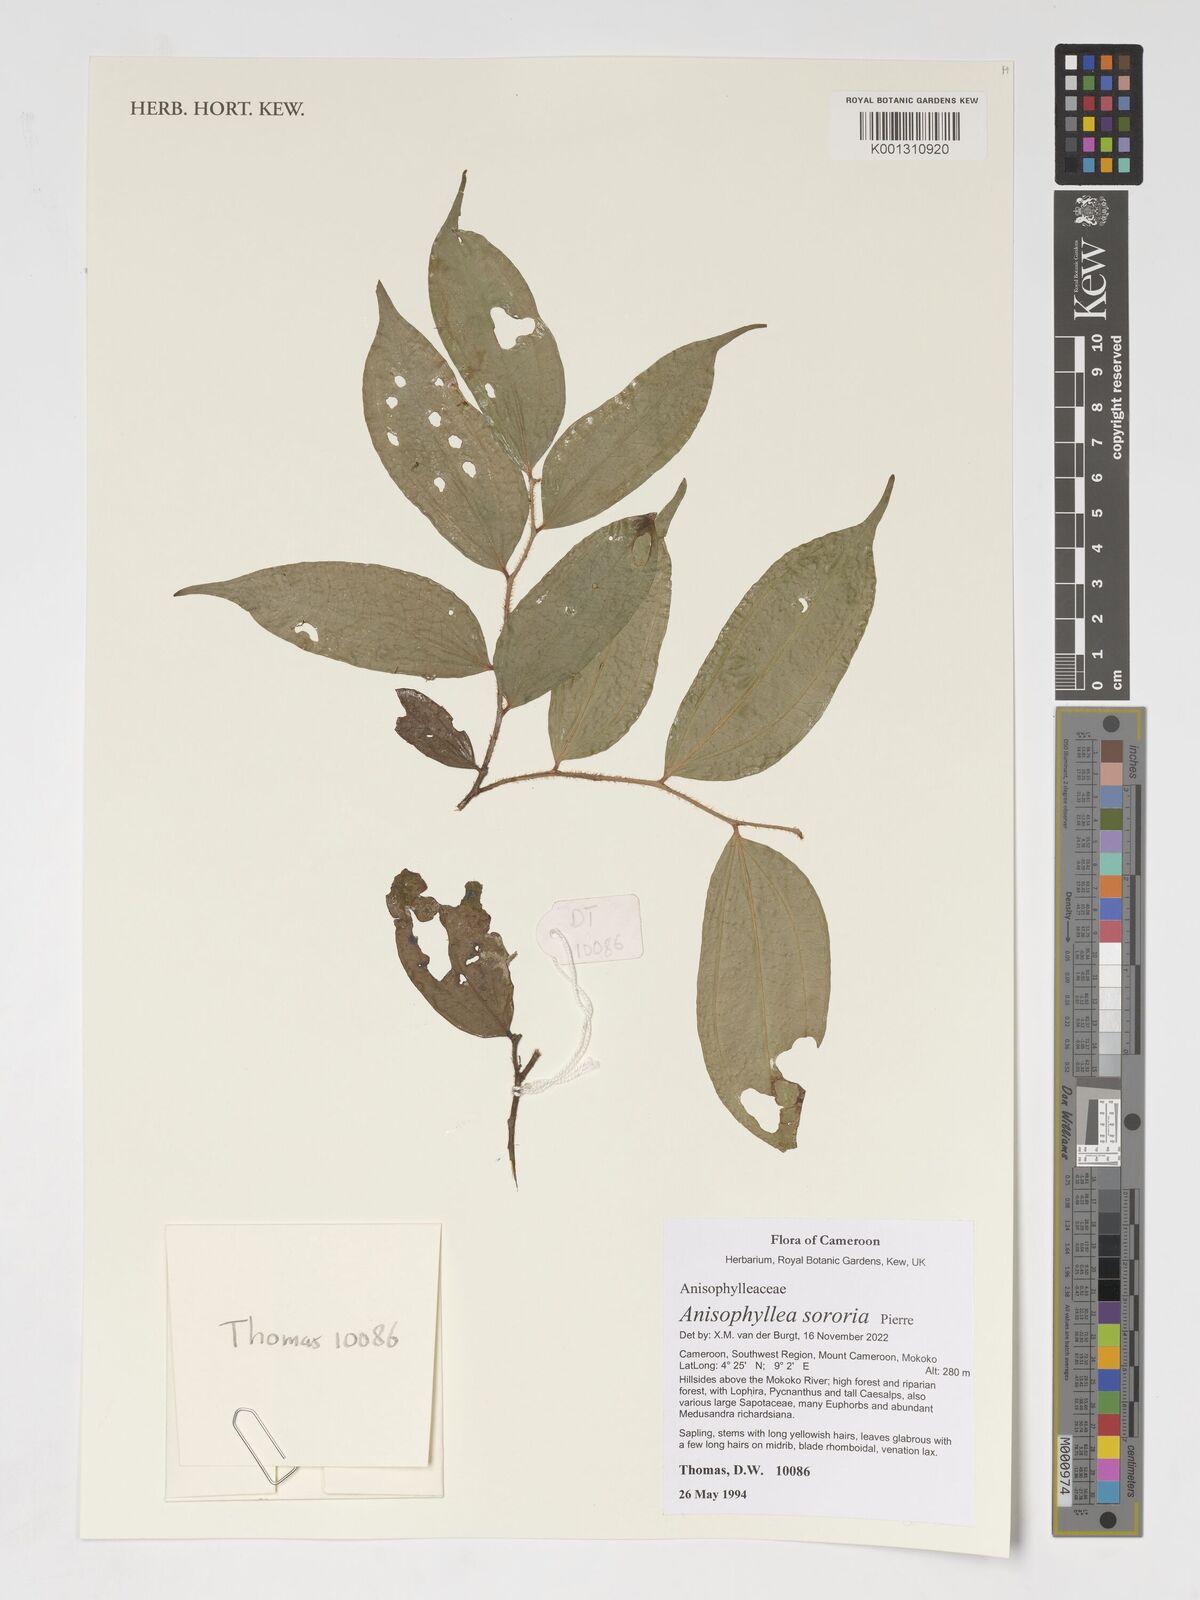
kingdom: Plantae
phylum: Tracheophyta
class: Magnoliopsida
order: Cucurbitales
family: Anisophylleaceae
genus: Anisophyllea
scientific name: Anisophyllea sororia
